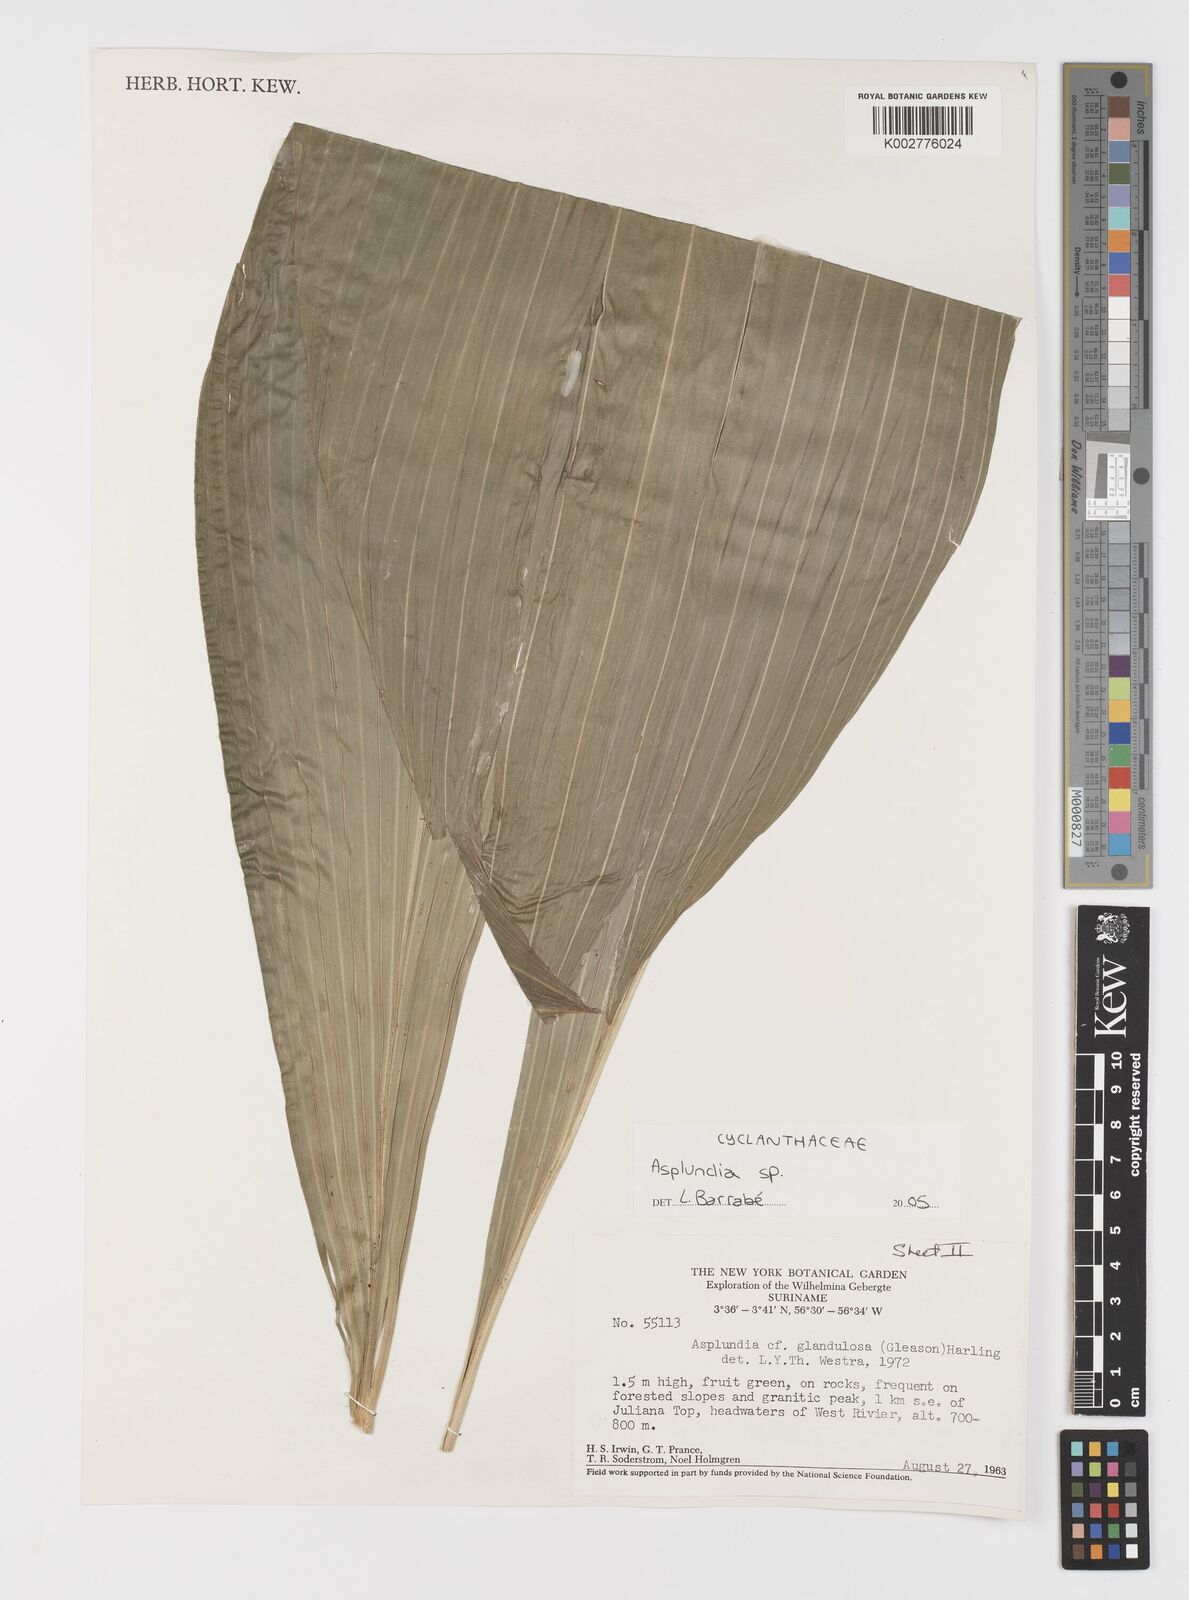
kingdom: Plantae
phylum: Tracheophyta
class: Liliopsida
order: Pandanales
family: Cyclanthaceae
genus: Asplundia
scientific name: Asplundia
